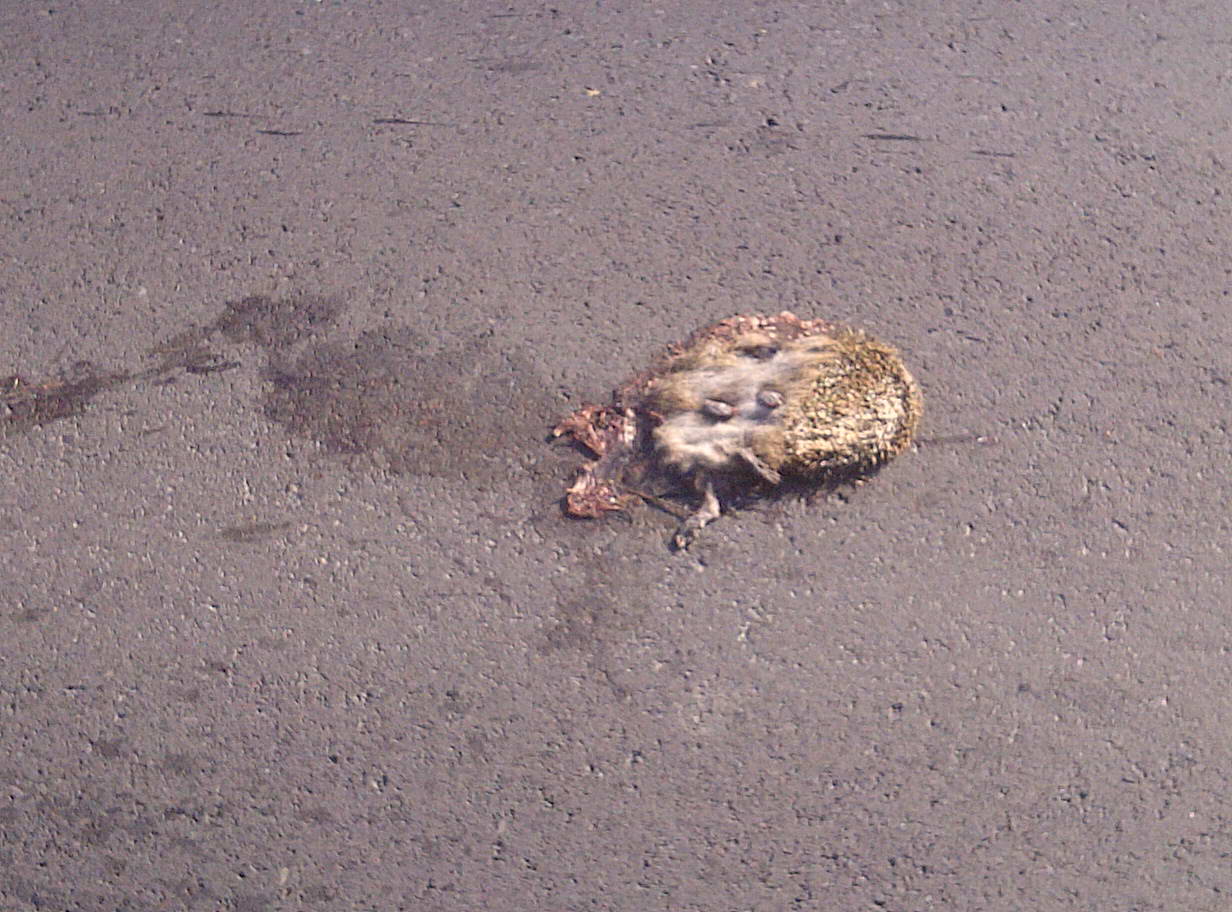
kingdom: Animalia
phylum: Chordata
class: Mammalia
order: Erinaceomorpha
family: Erinaceidae
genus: Erinaceus
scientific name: Erinaceus
